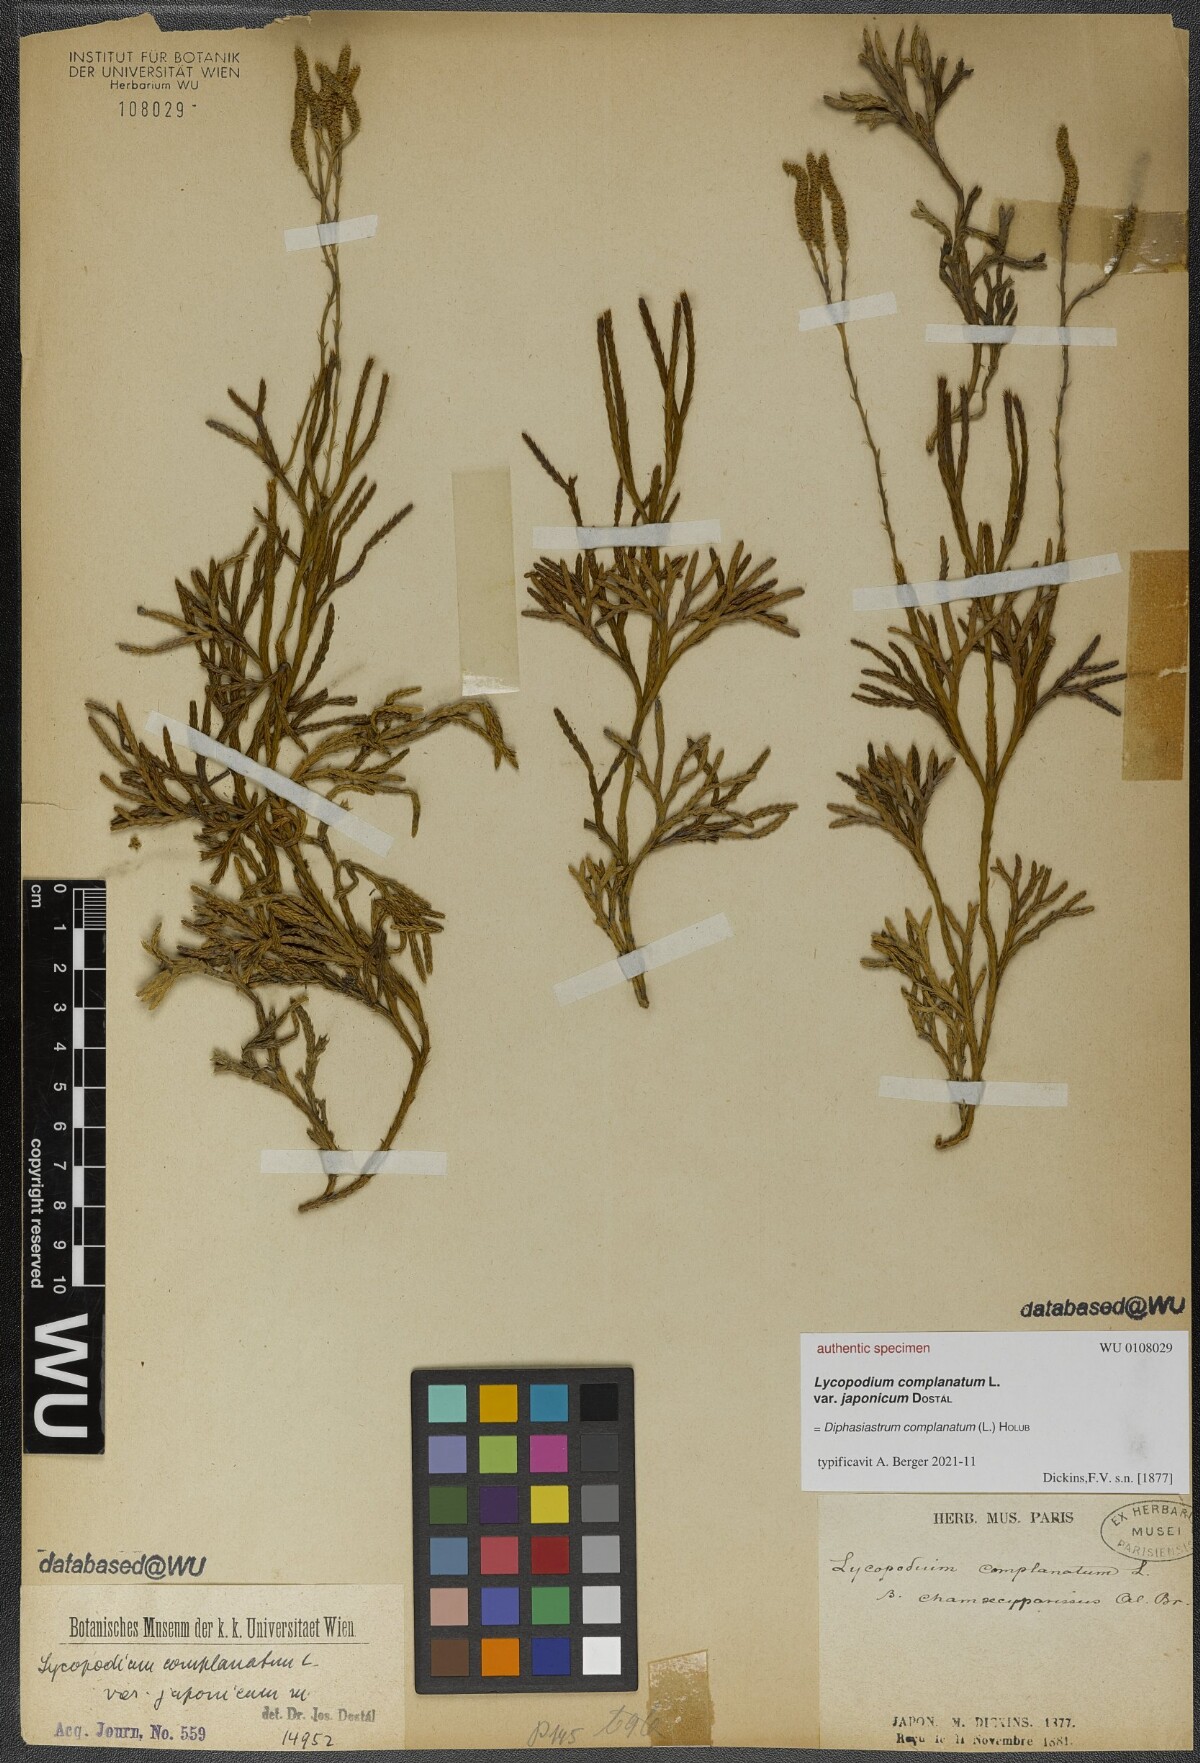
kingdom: Plantae
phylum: Tracheophyta
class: Lycopodiopsida
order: Lycopodiales
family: Lycopodiaceae
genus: Diphasiastrum
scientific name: Diphasiastrum complanatum
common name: Northern running-pine
